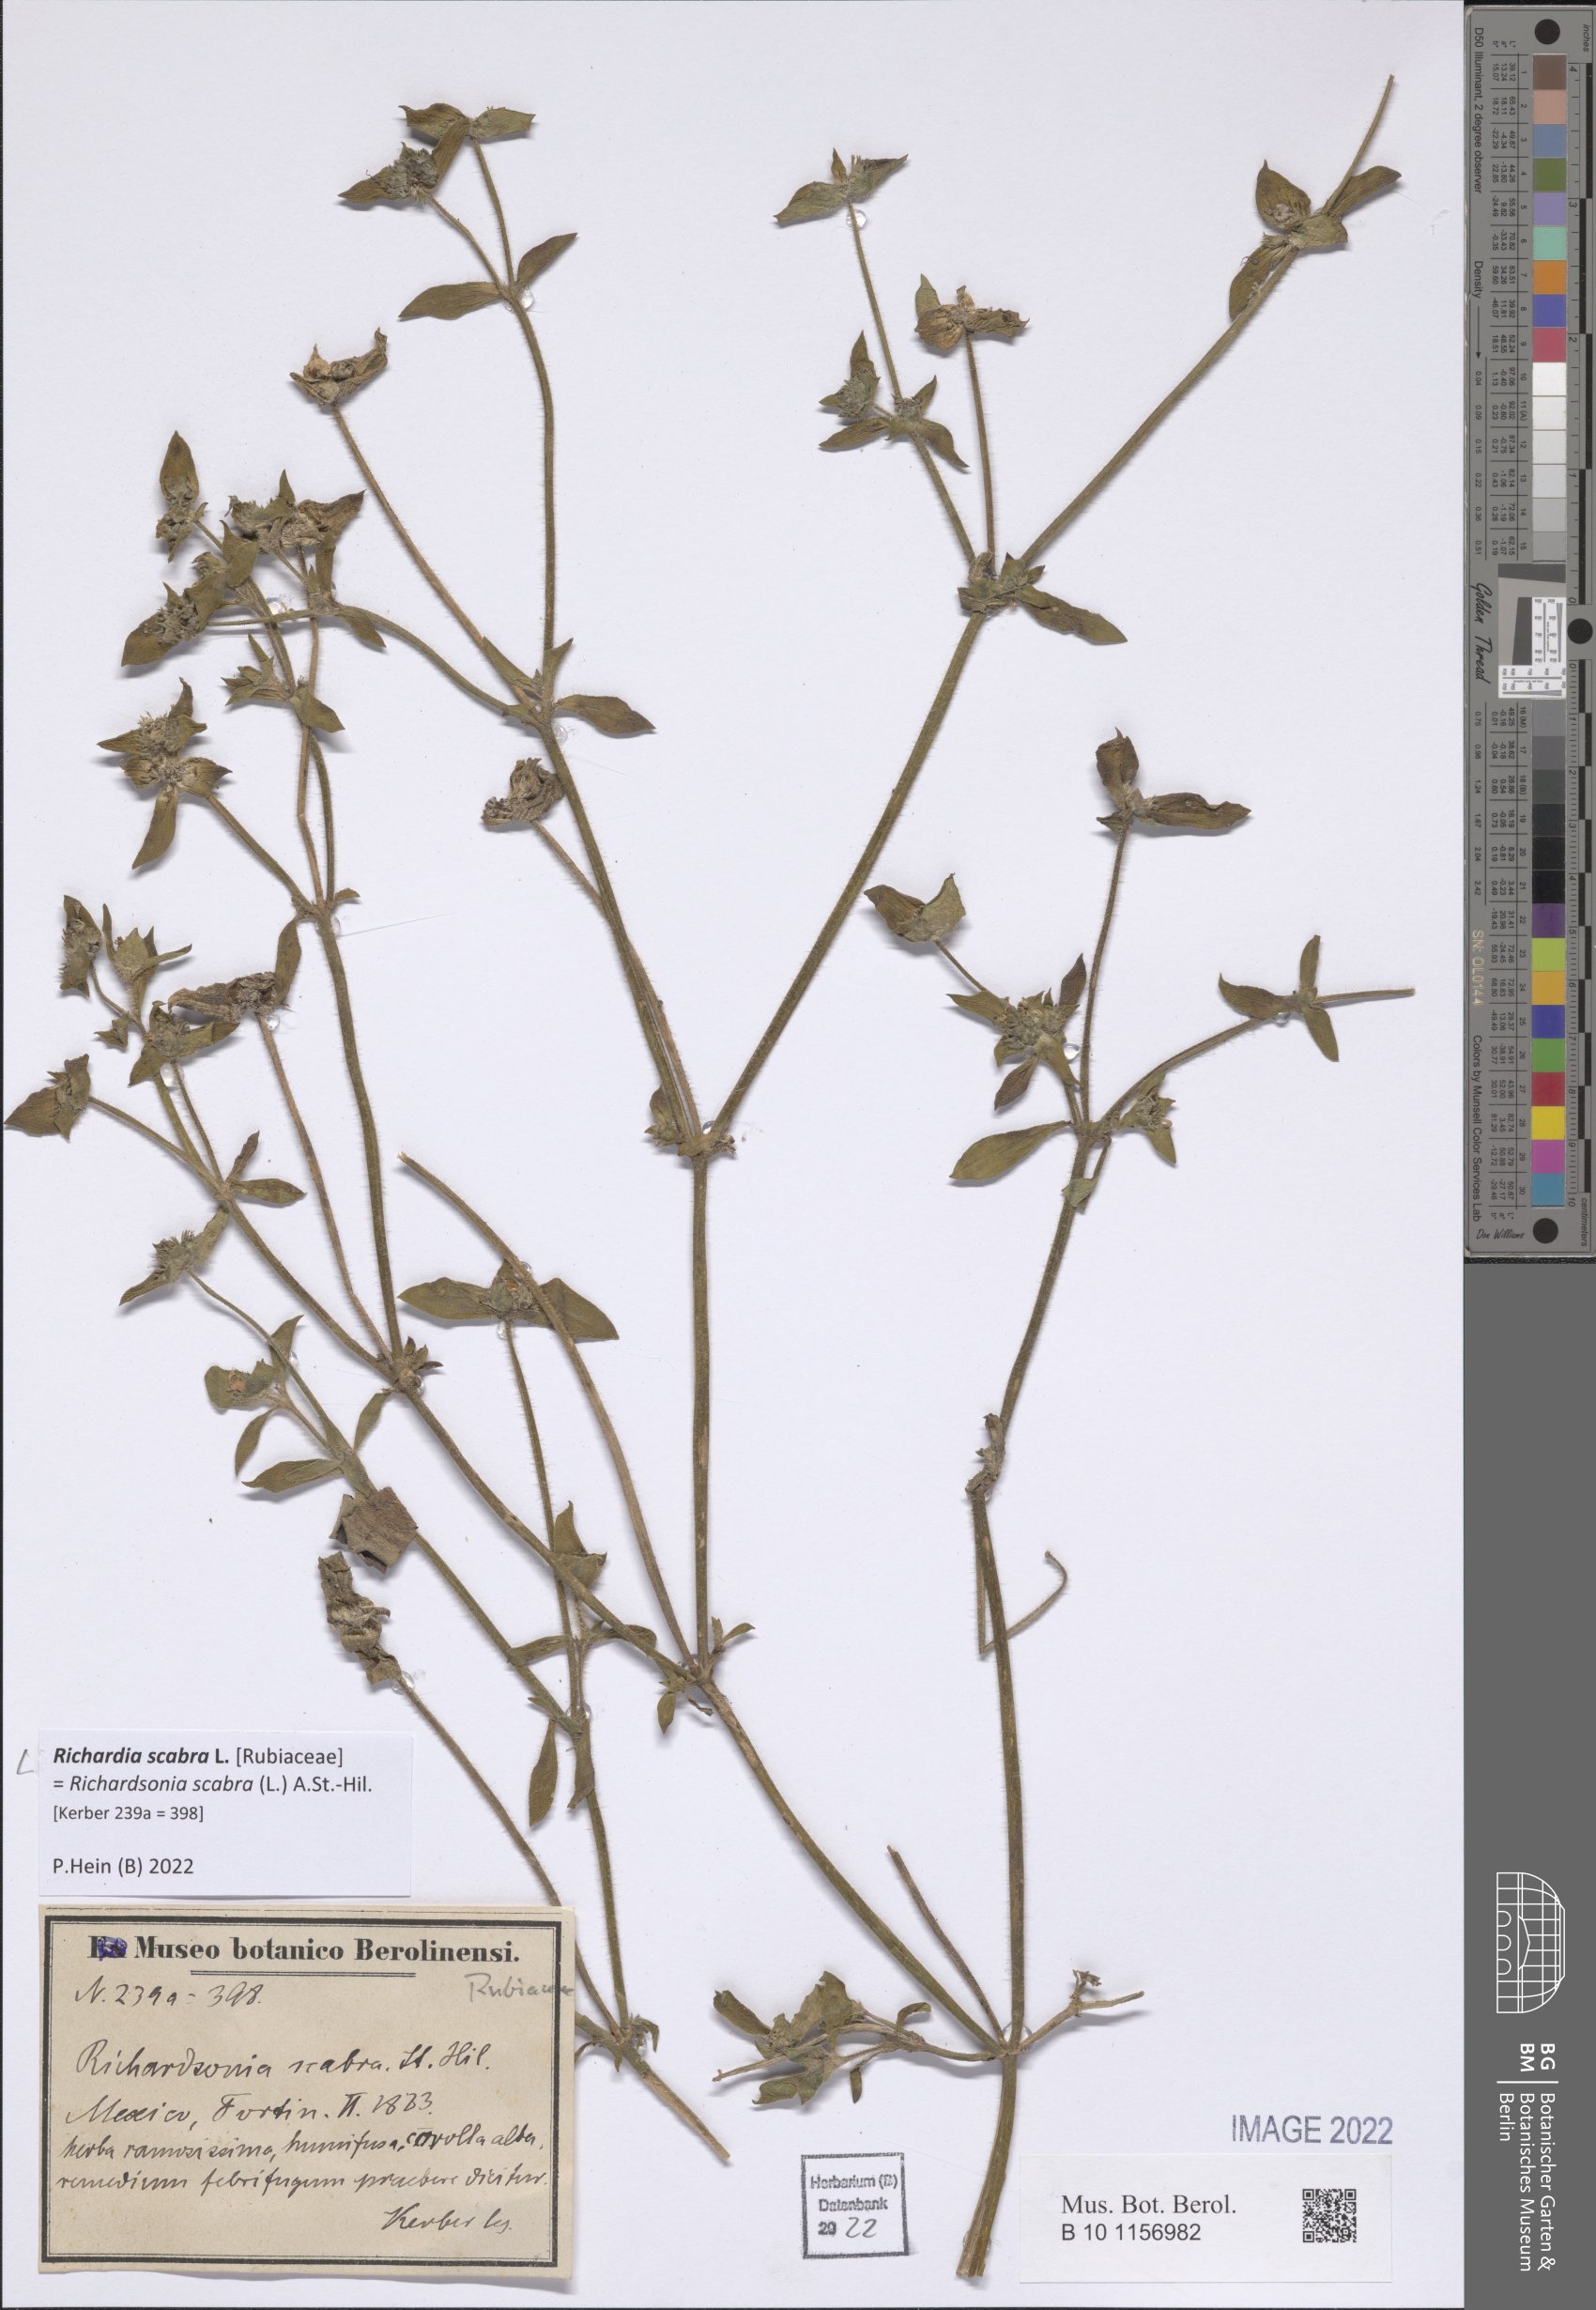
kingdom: Plantae
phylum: Tracheophyta
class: Magnoliopsida
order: Gentianales
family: Rubiaceae
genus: Richardia
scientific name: Richardia scabra
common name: Rough mexican clover
